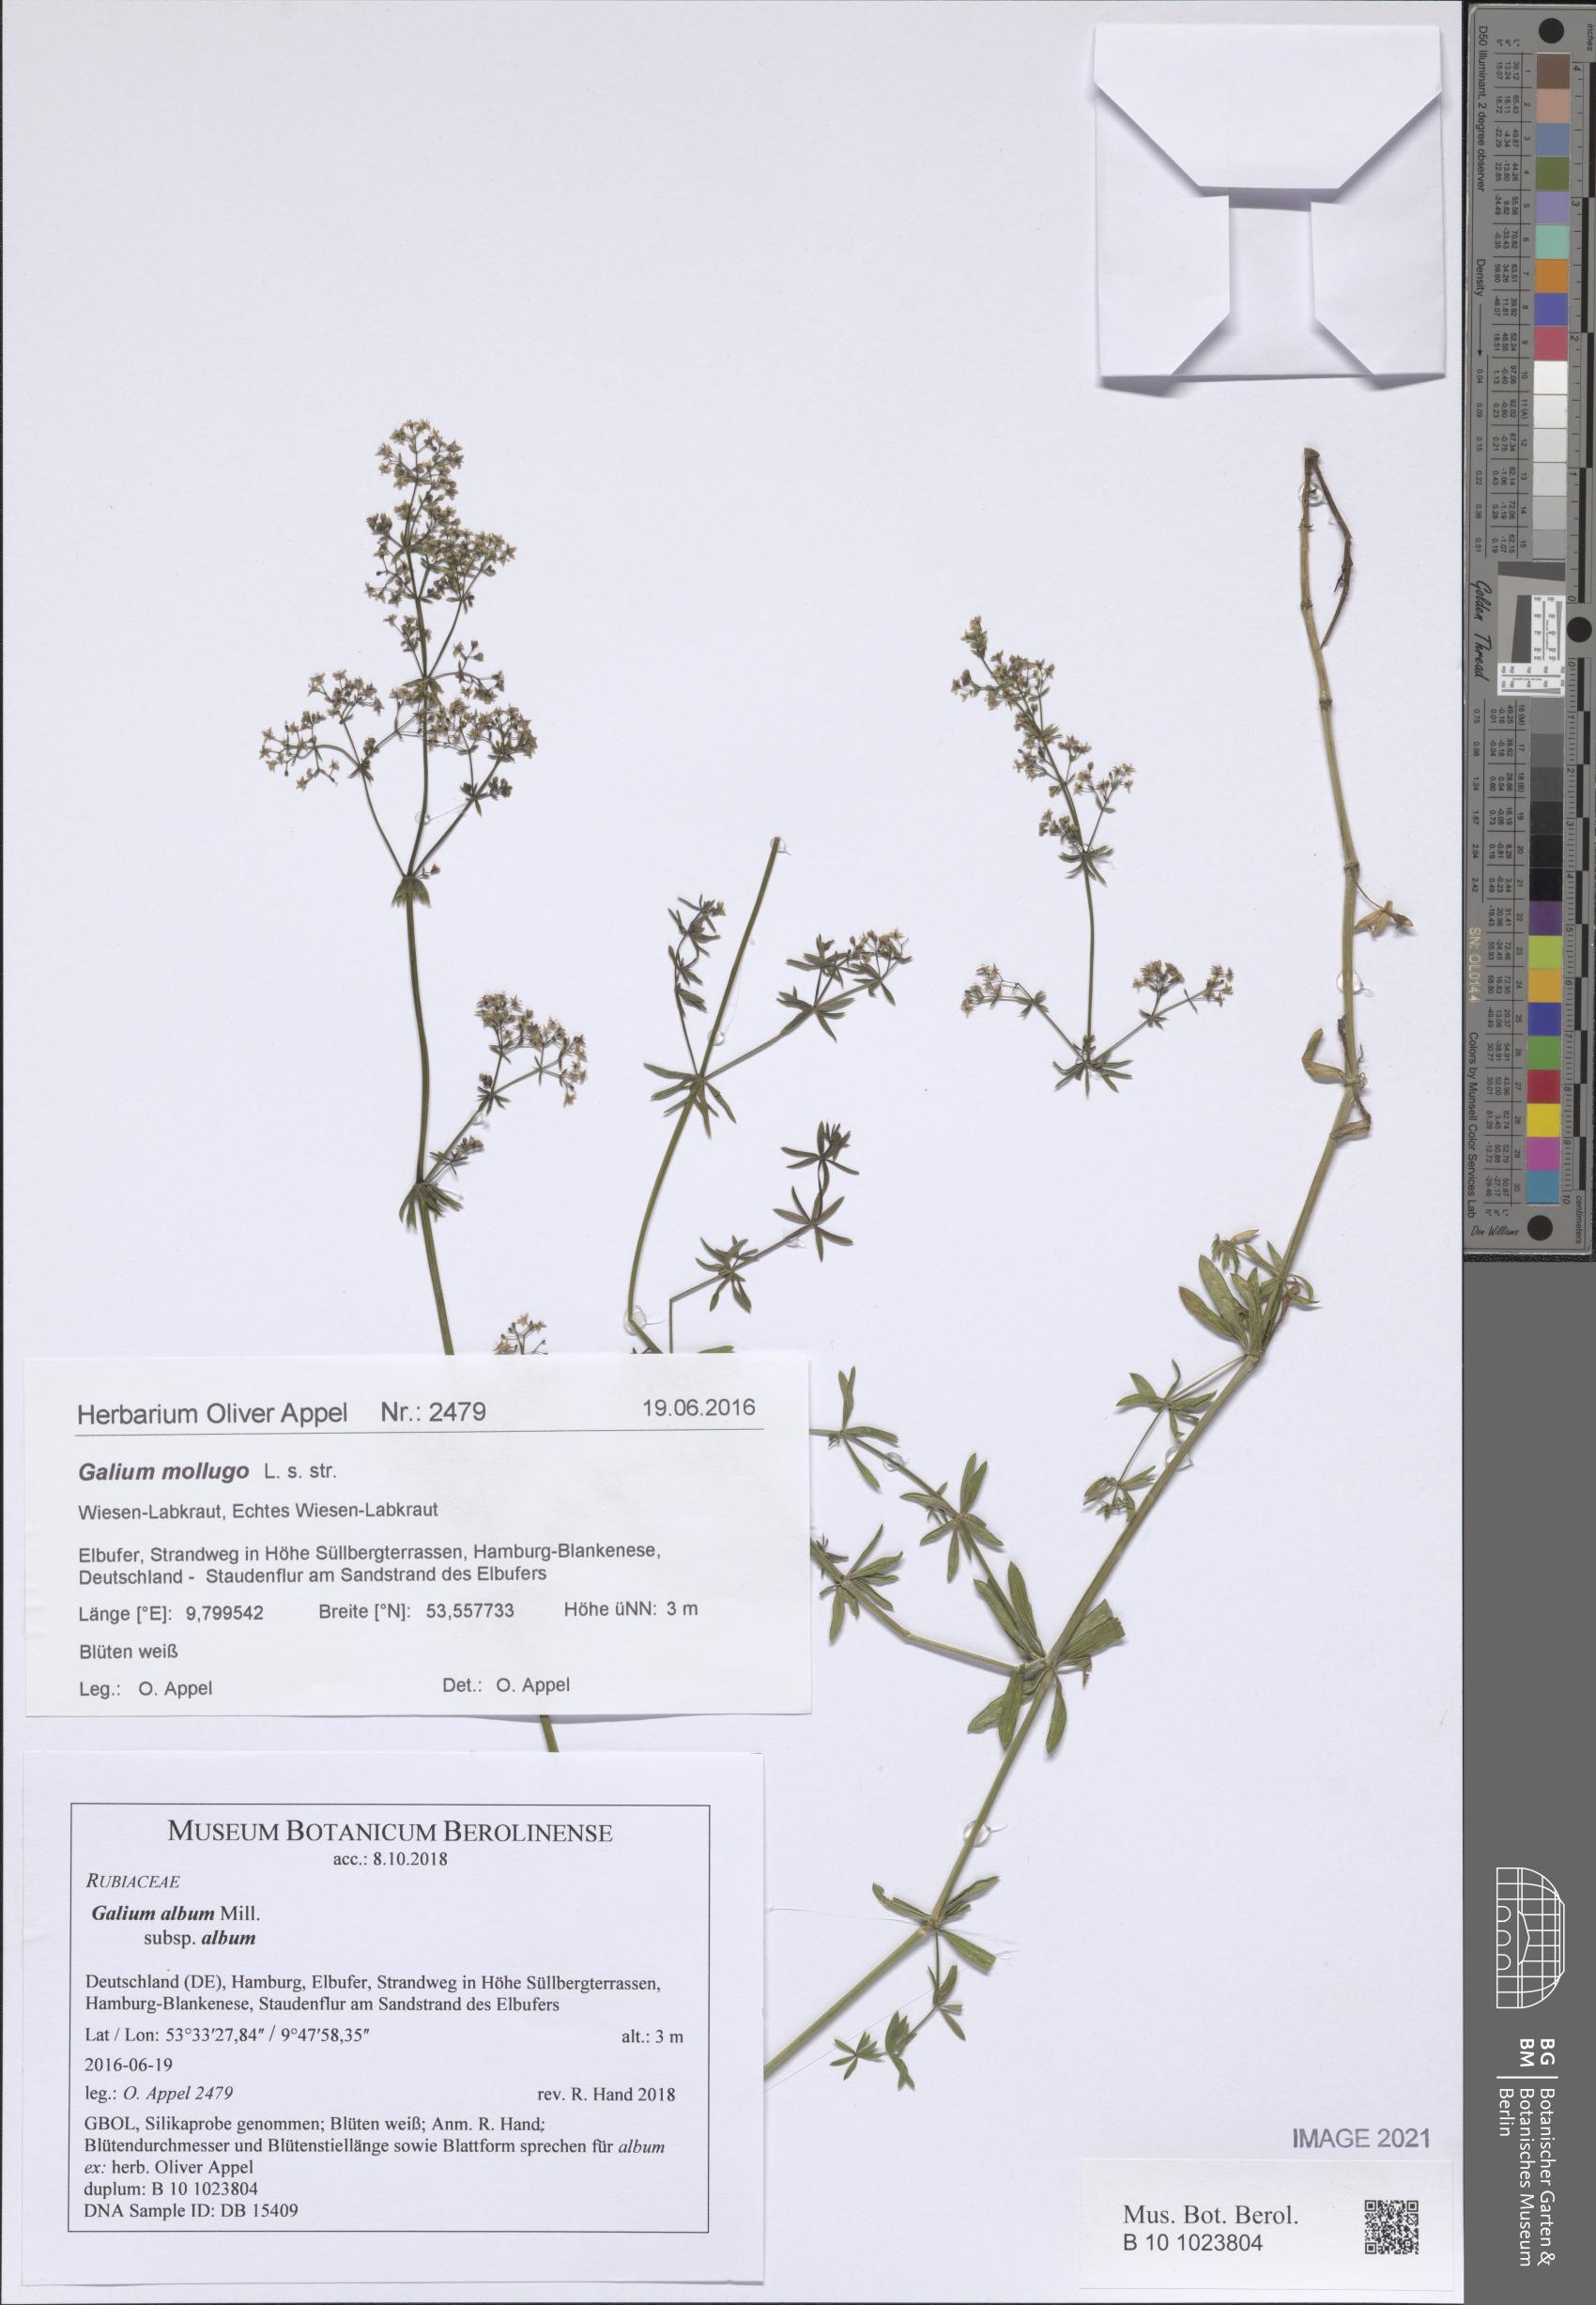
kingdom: Plantae
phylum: Tracheophyta
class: Magnoliopsida
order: Gentianales
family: Rubiaceae
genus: Galium
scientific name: Galium album
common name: White bedstraw
